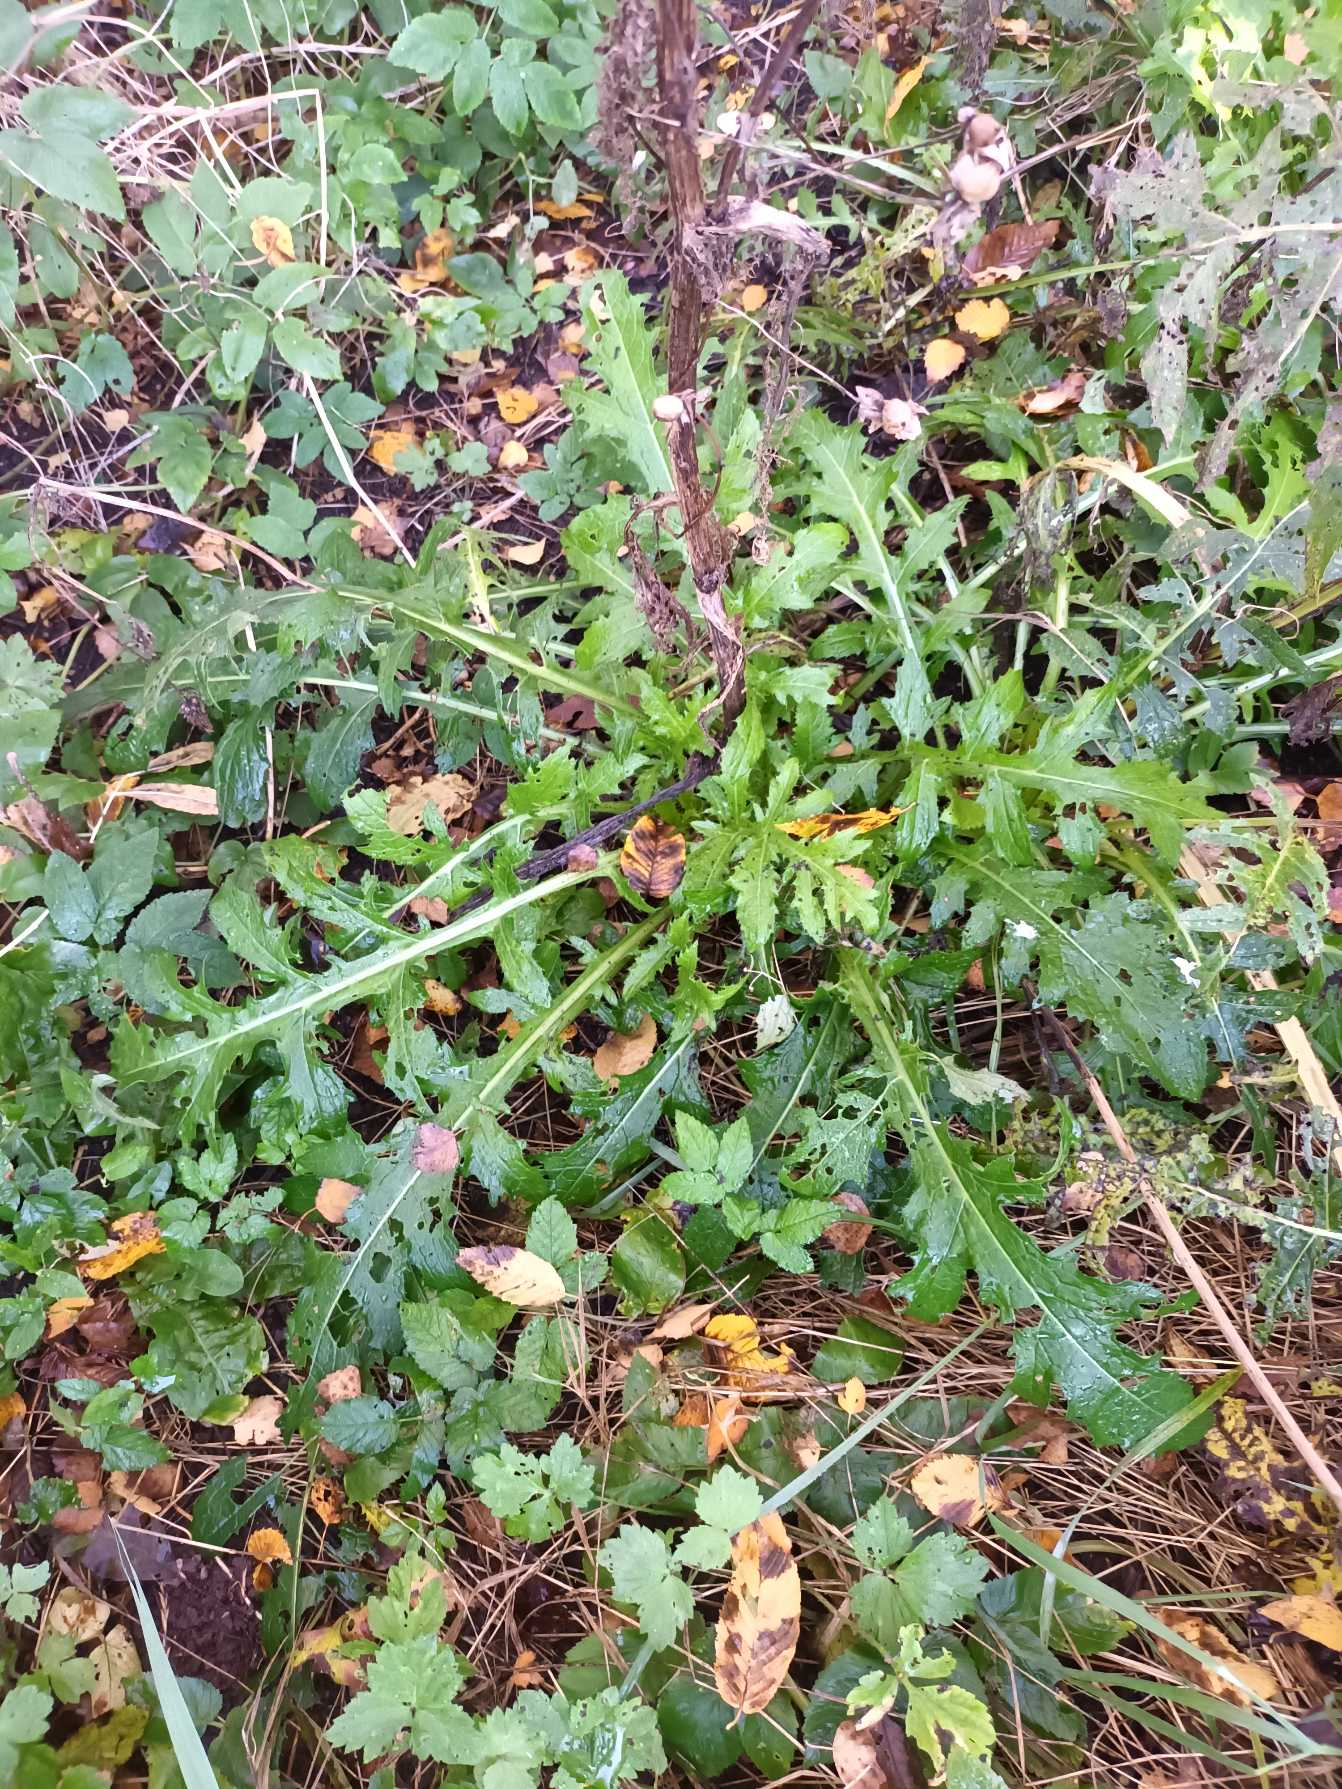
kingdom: Plantae
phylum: Tracheophyta
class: Magnoliopsida
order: Asterales
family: Asteraceae
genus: Cirsium
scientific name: Cirsium oleraceum
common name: Kål-tidsel
